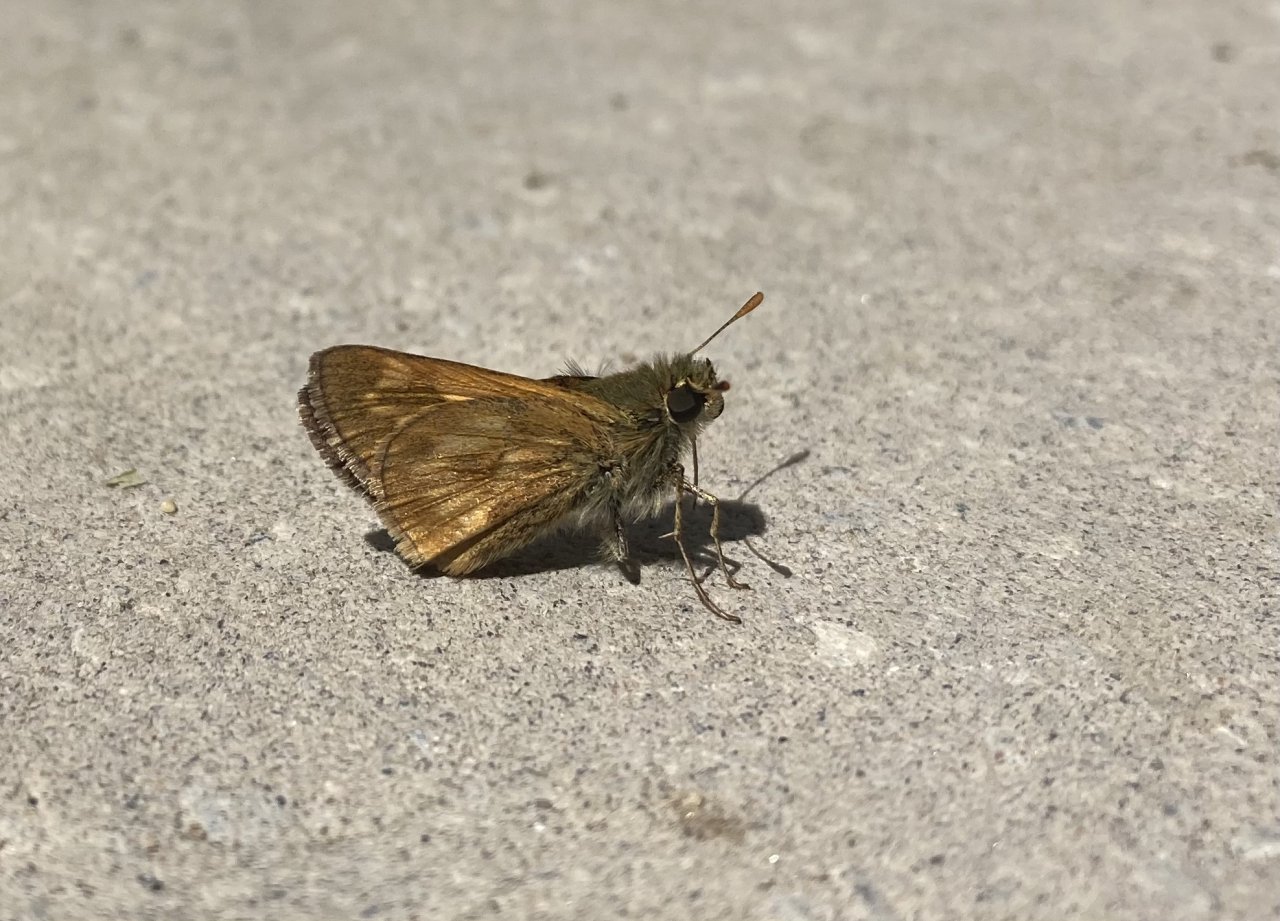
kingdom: Animalia
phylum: Arthropoda
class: Insecta
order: Lepidoptera
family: Hesperiidae
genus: Polites
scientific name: Polites
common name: Long Dash Skipper
